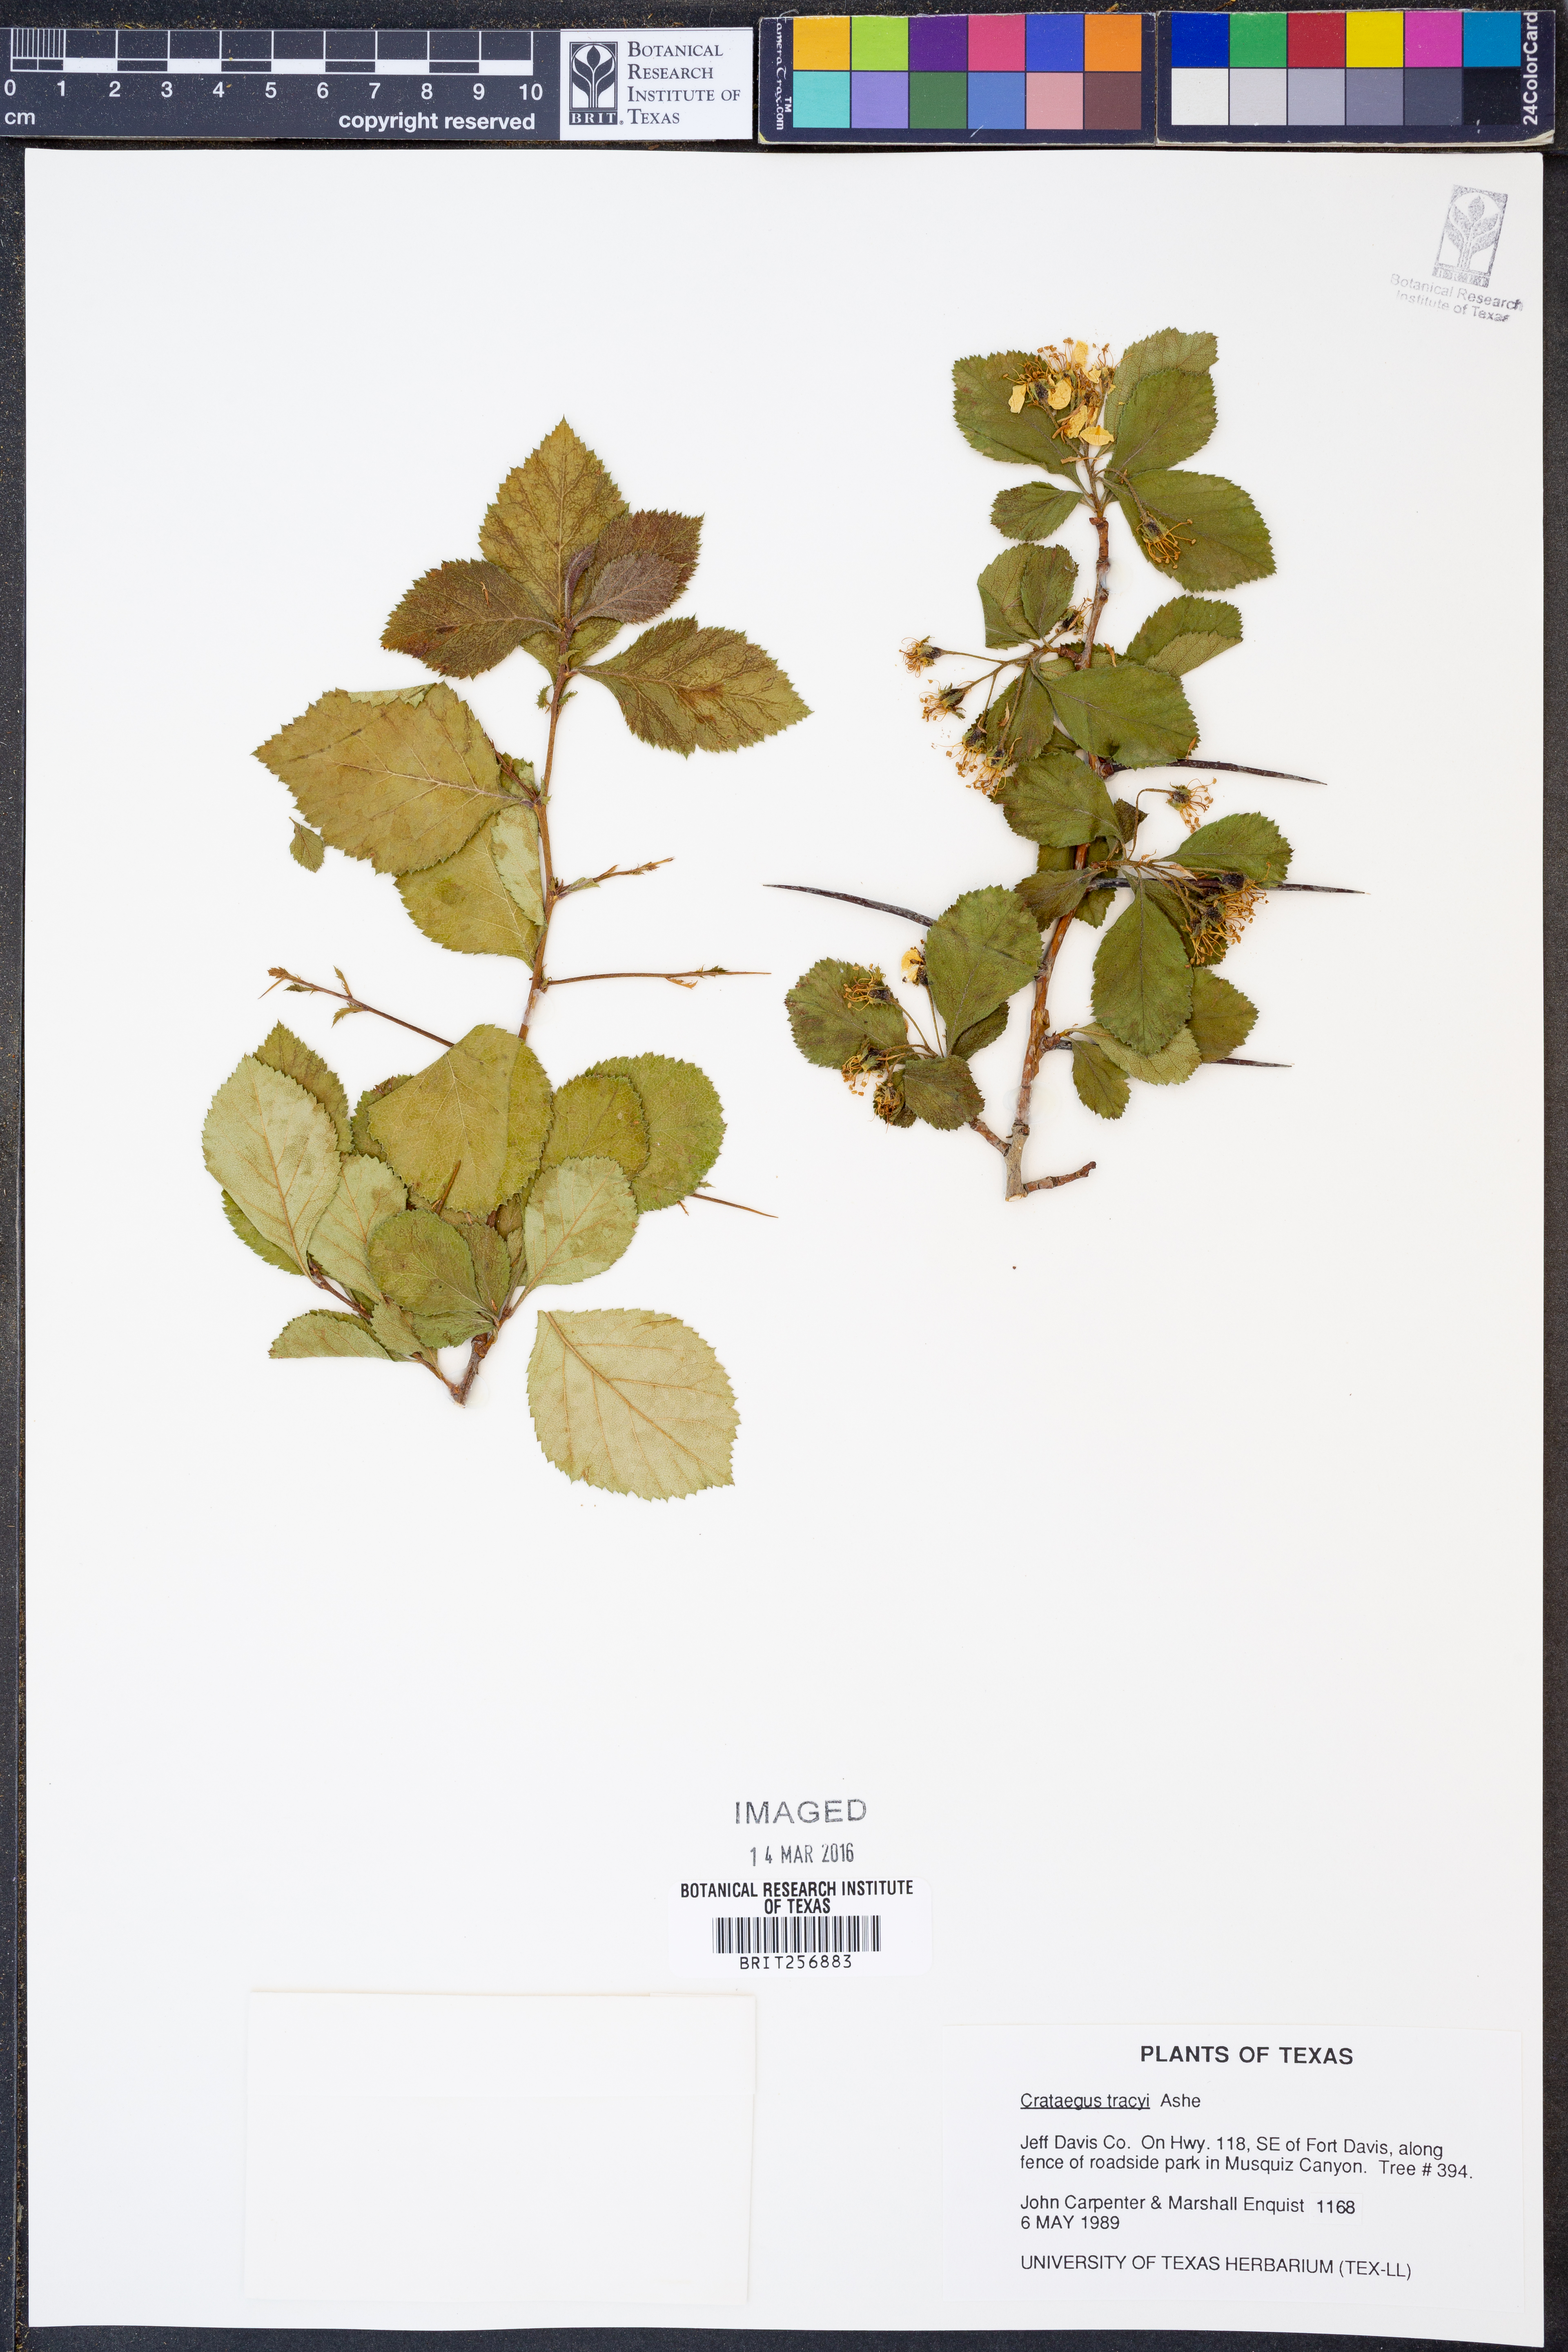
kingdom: Plantae
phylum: Tracheophyta
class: Magnoliopsida
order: Rosales
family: Rosaceae
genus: Crataegus
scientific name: Crataegus tracyi
